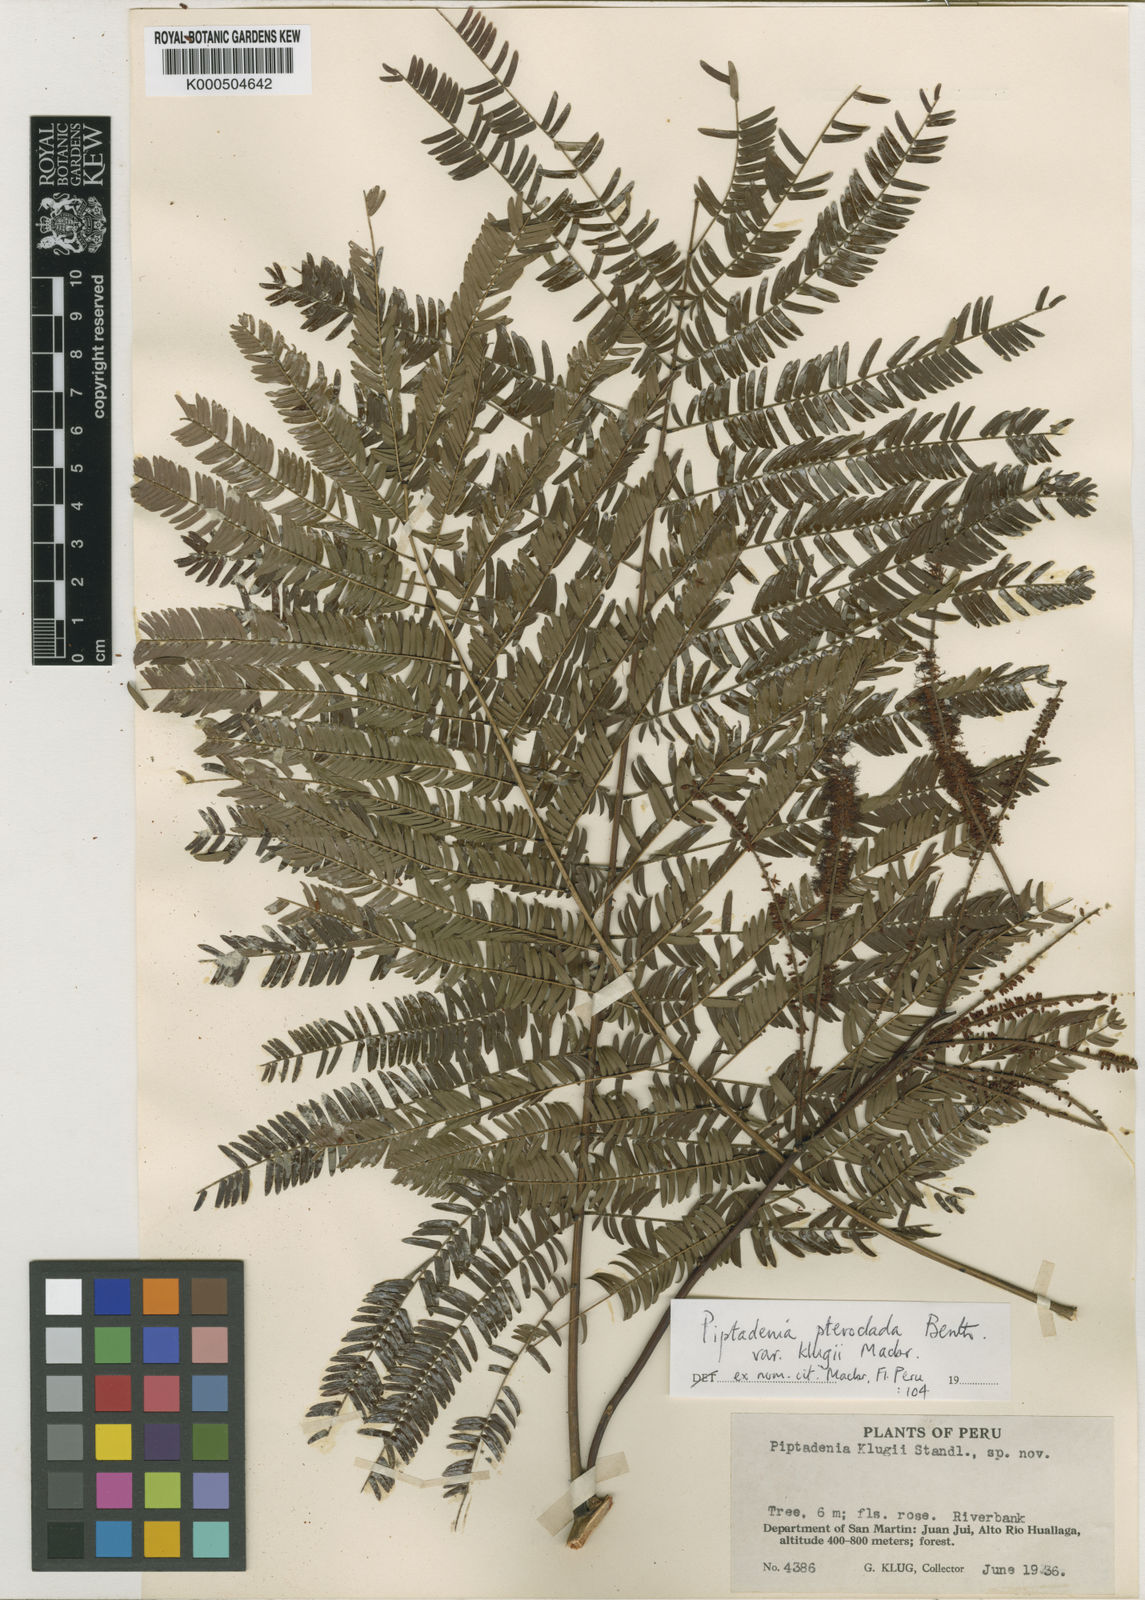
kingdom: Plantae
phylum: Tracheophyta
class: Magnoliopsida
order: Fabales
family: Fabaceae
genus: Piptadenia
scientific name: Piptadenia pteroclada
